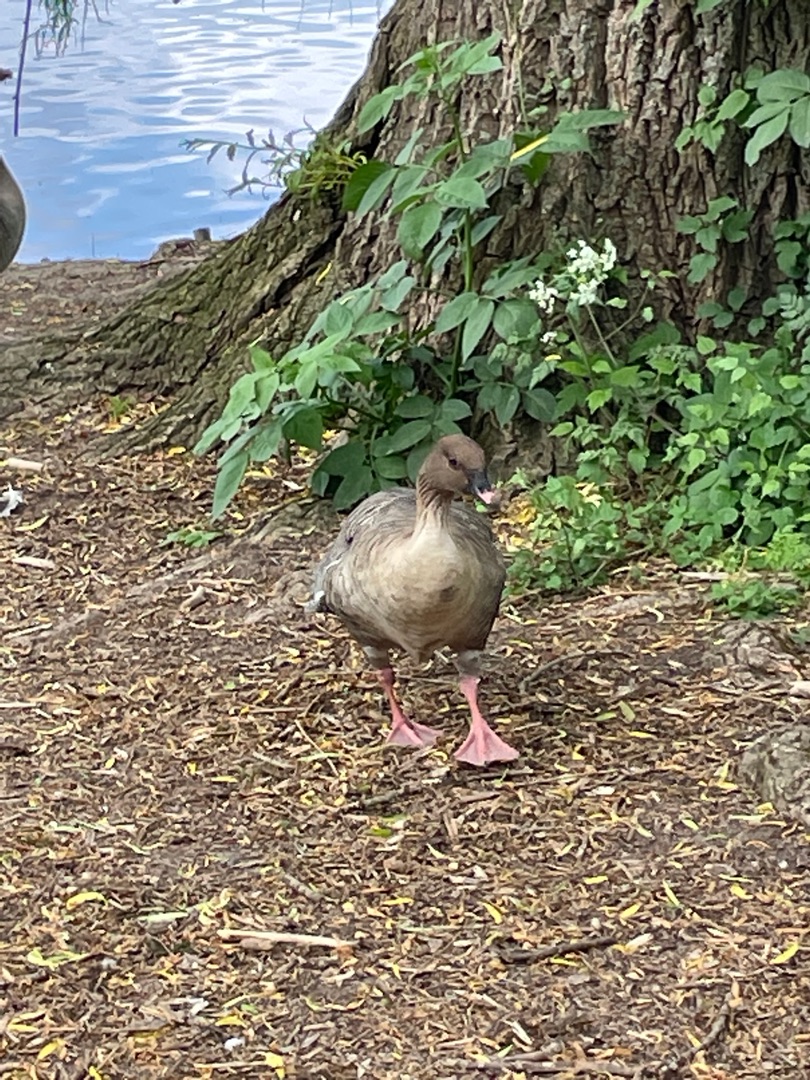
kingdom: Animalia
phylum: Chordata
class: Aves
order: Anseriformes
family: Anatidae
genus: Anser
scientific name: Anser brachyrhynchus
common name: Kortnæbbet gås
